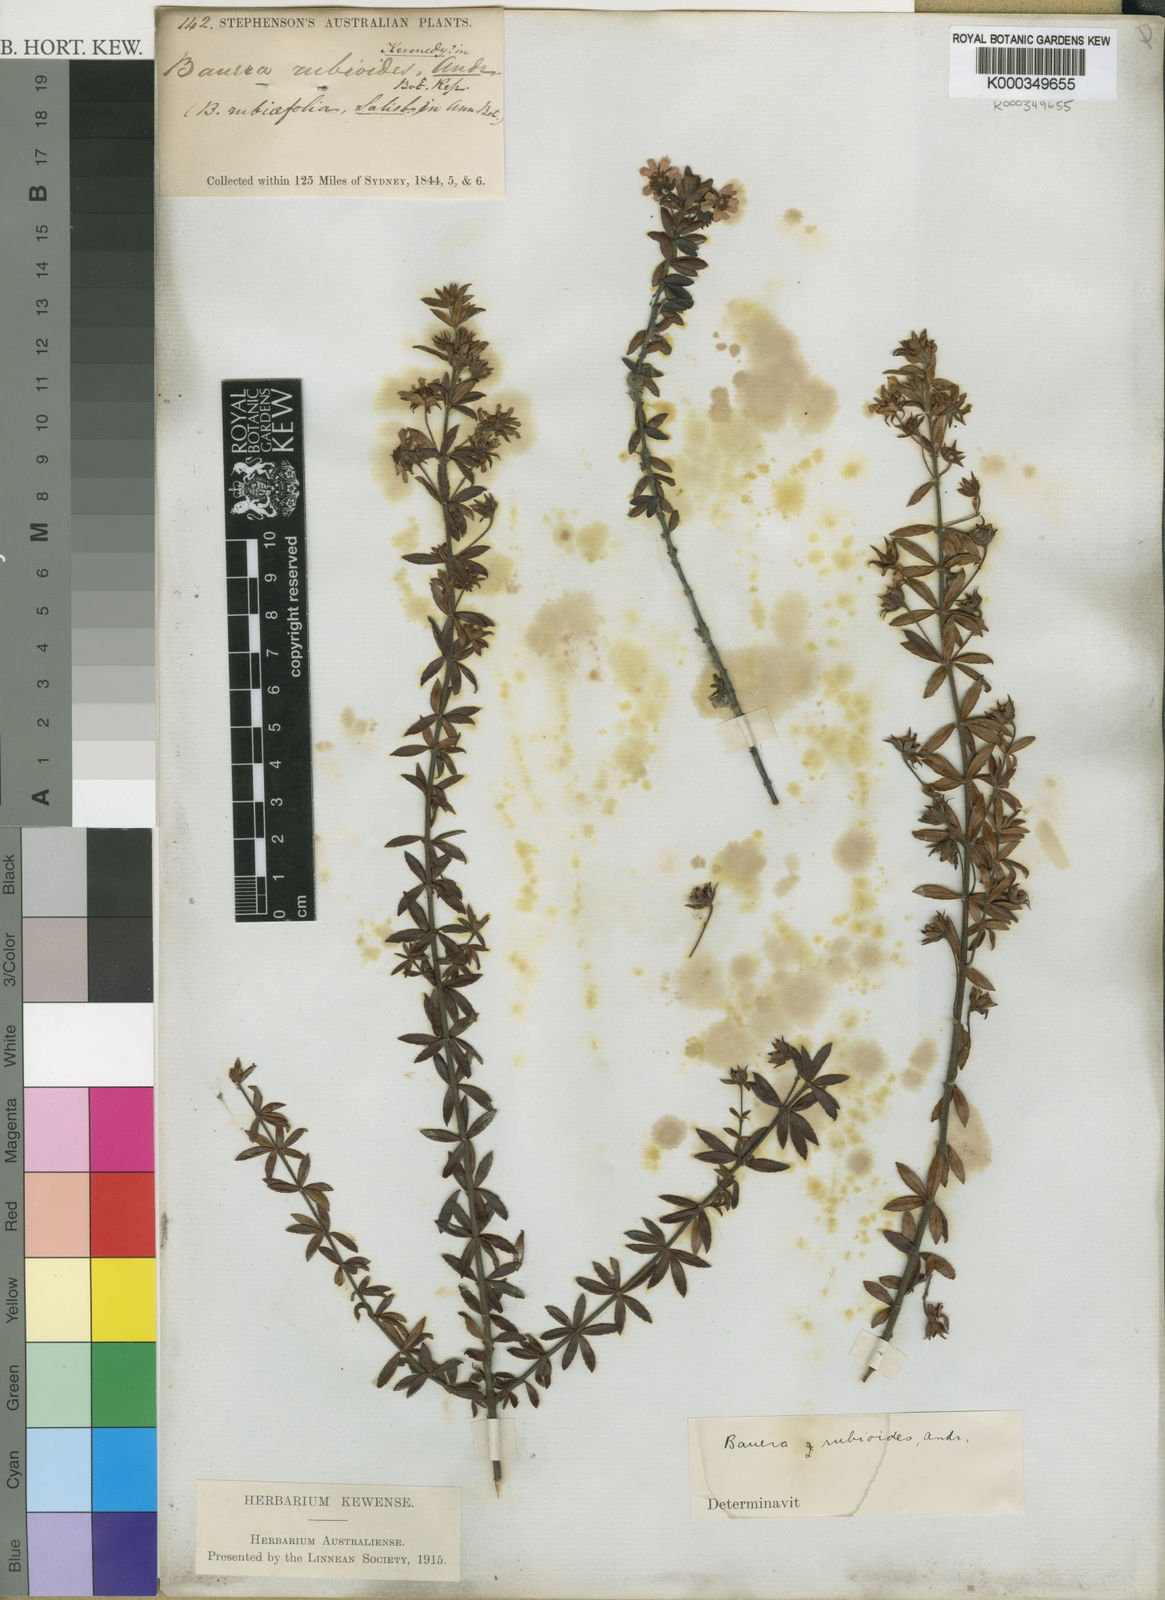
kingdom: Plantae
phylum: Tracheophyta
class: Magnoliopsida
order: Oxalidales
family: Cunoniaceae
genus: Bauera
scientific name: Bauera rubioides
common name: River-rose
